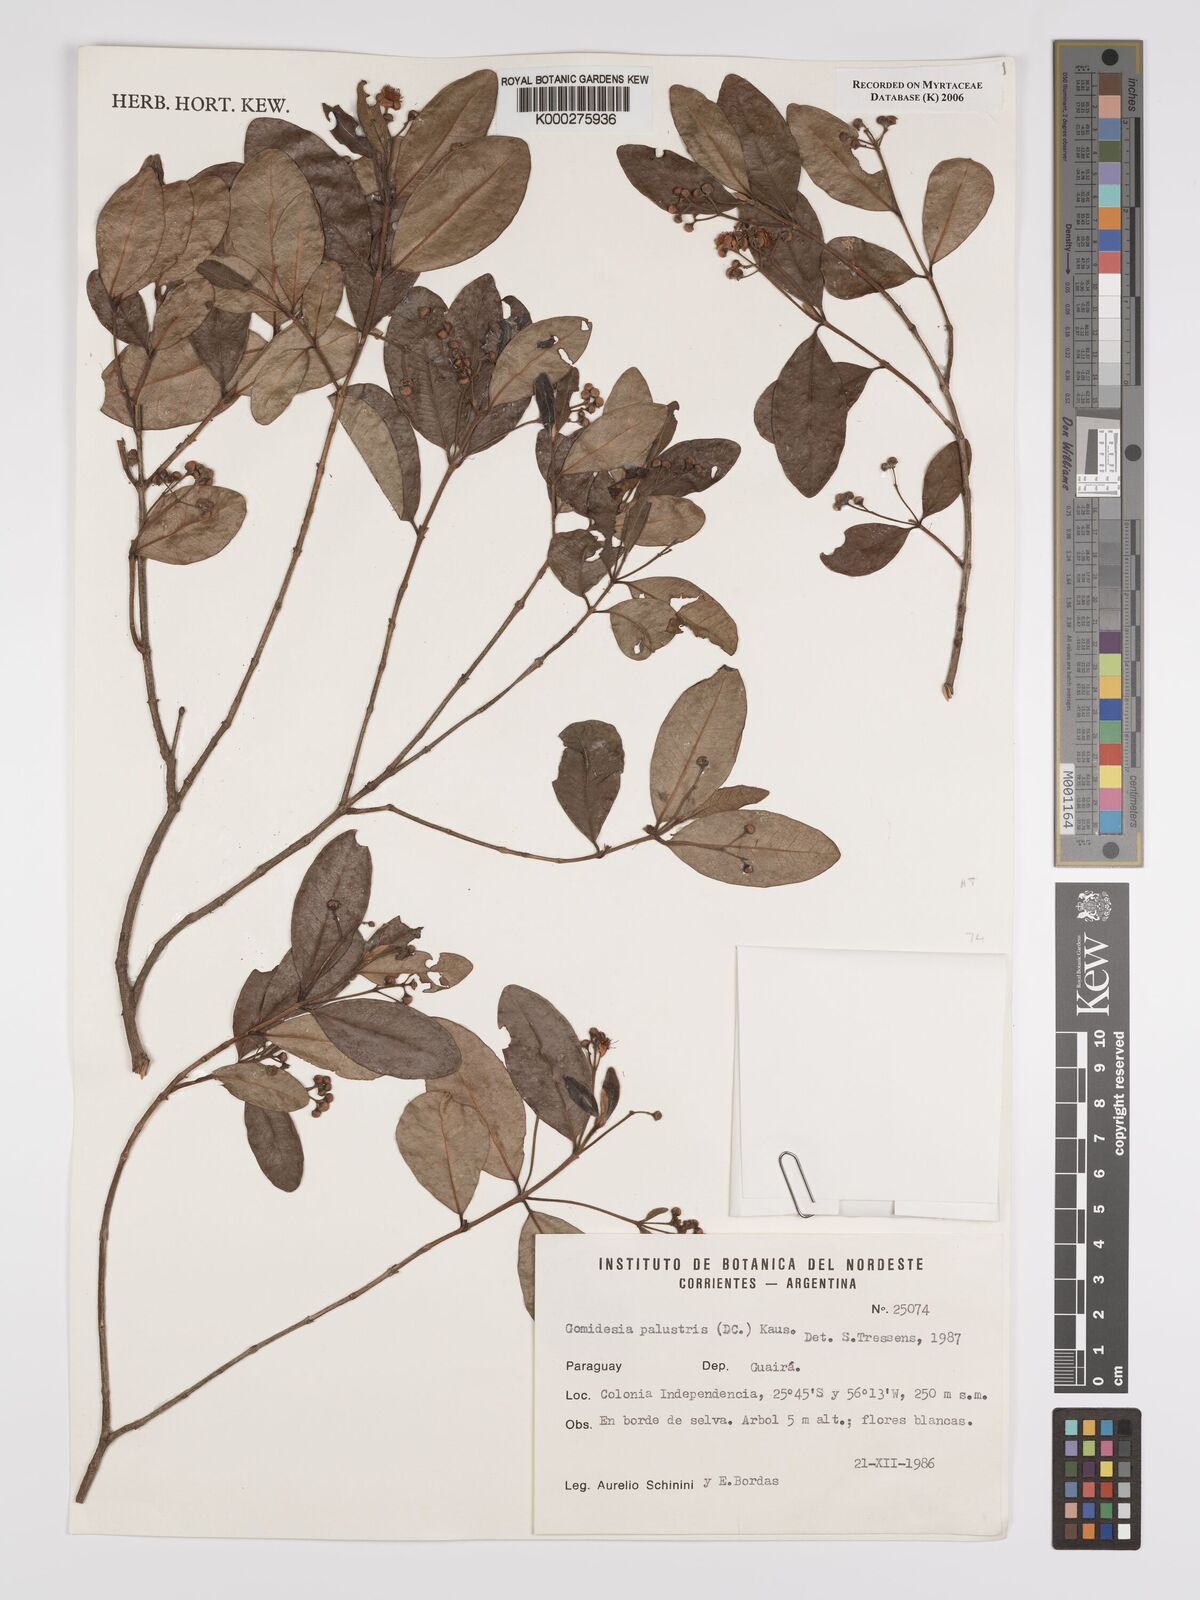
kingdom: Plantae
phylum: Tracheophyta
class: Magnoliopsida
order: Myrtales
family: Myrtaceae
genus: Myrcia
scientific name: Myrcia palustris
